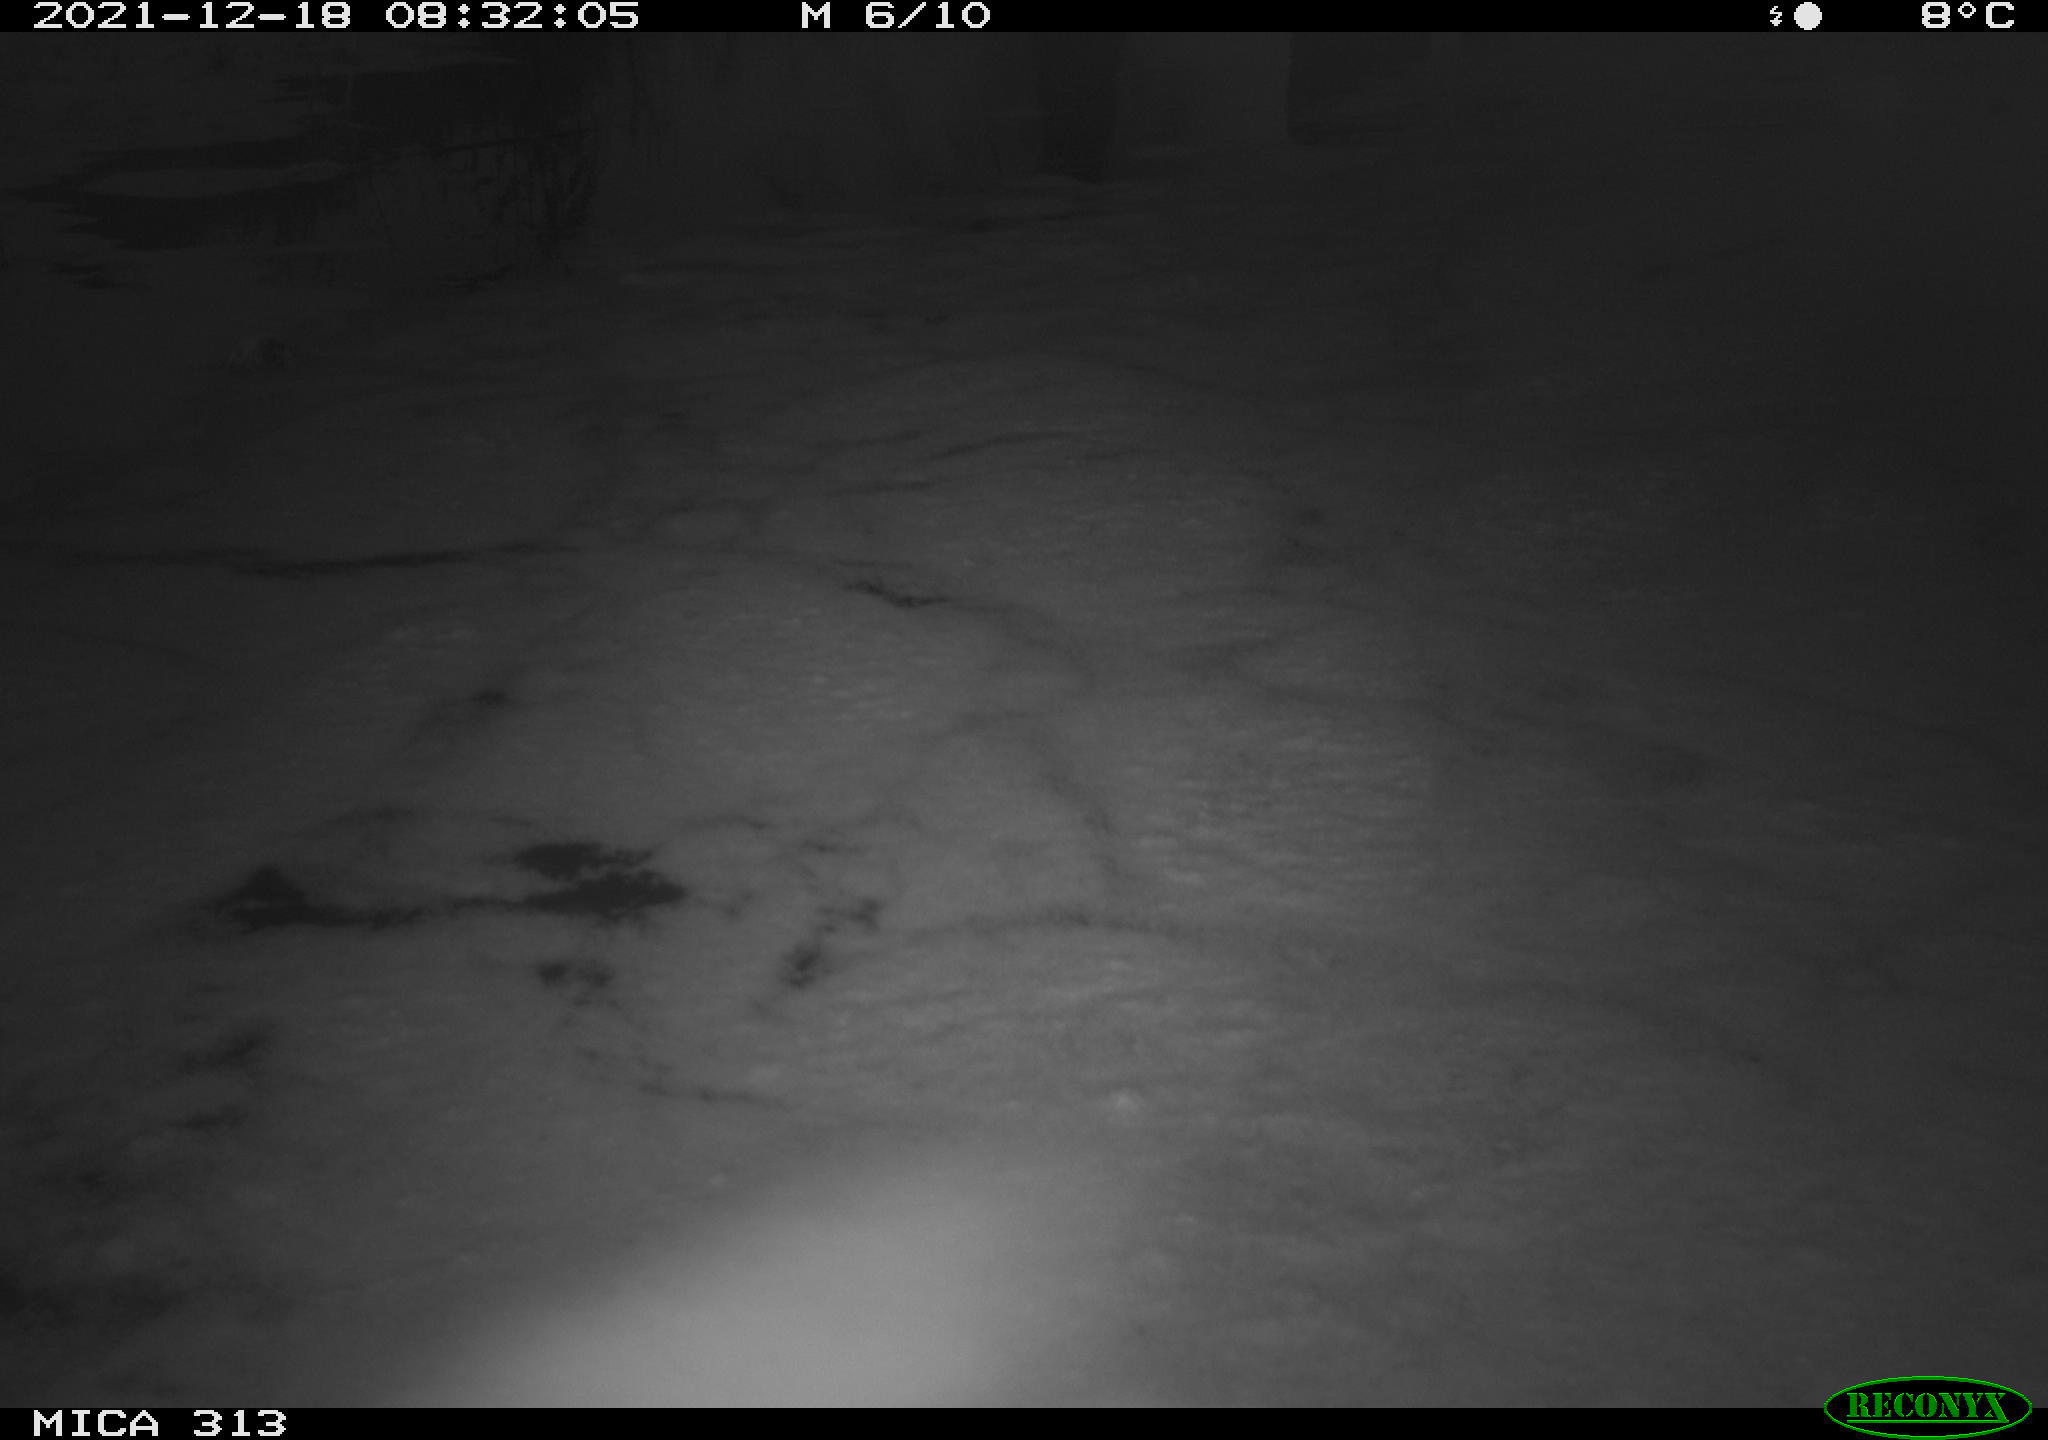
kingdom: Animalia
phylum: Chordata
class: Aves
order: Gruiformes
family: Rallidae
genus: Gallinula
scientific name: Gallinula chloropus
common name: Common moorhen
